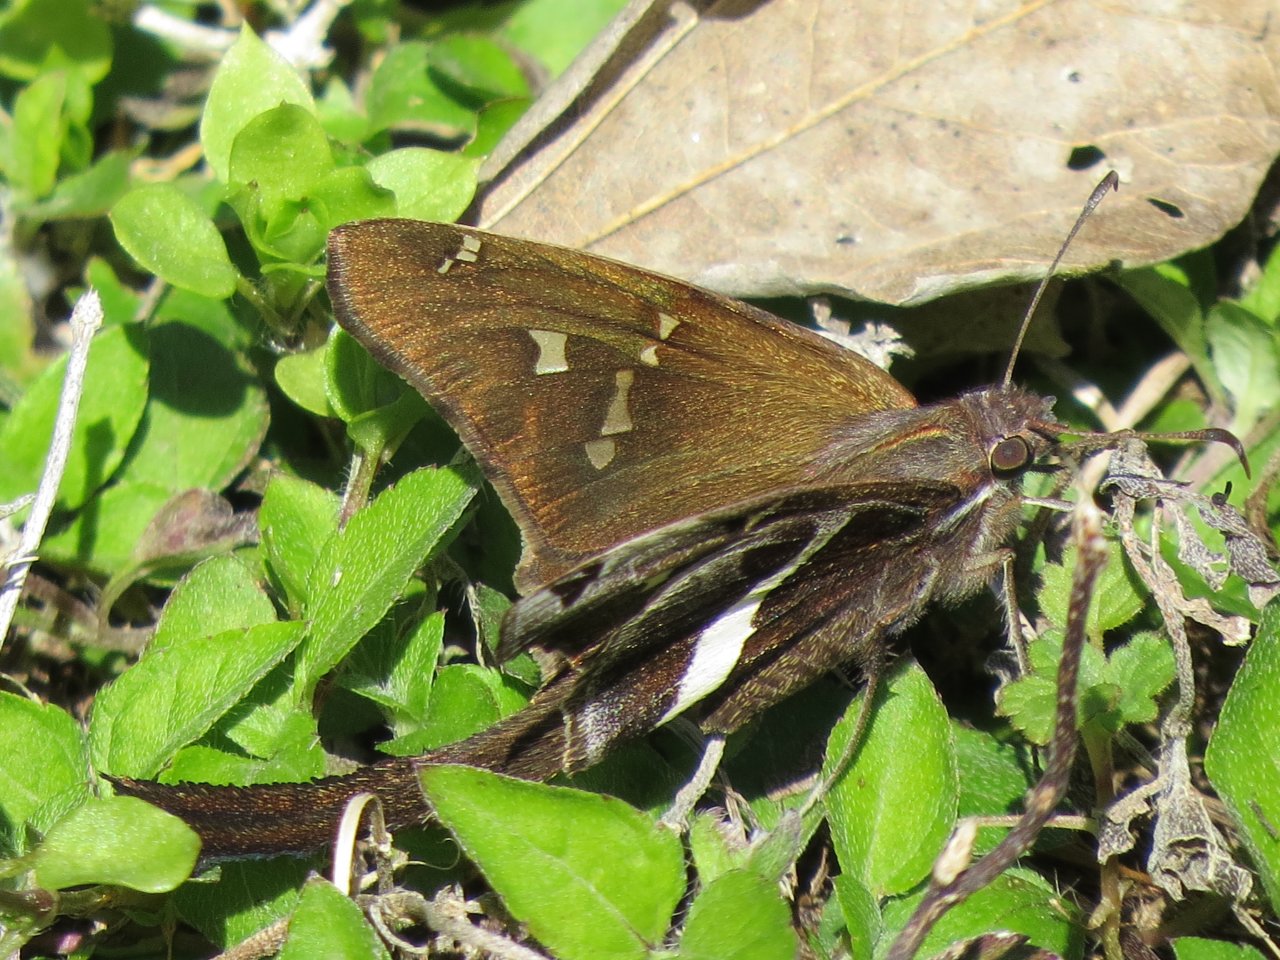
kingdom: Animalia
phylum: Arthropoda
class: Insecta
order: Lepidoptera
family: Hesperiidae
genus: Chioides
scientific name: Chioides catillus
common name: White-striped Longtail
